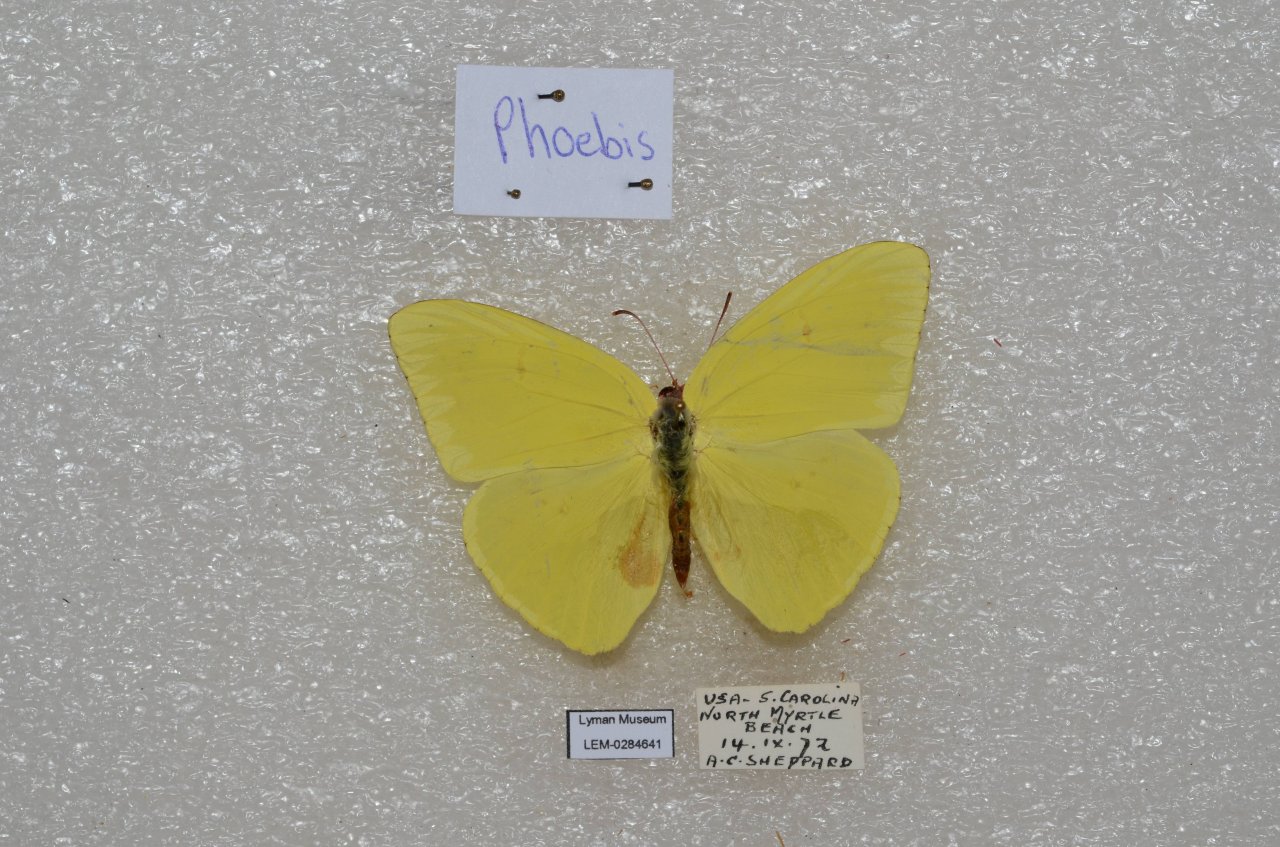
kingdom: Animalia
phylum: Arthropoda
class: Insecta
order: Lepidoptera
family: Pieridae
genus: Phoebis
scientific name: Phoebis sennae
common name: Cloudless Sulphur
